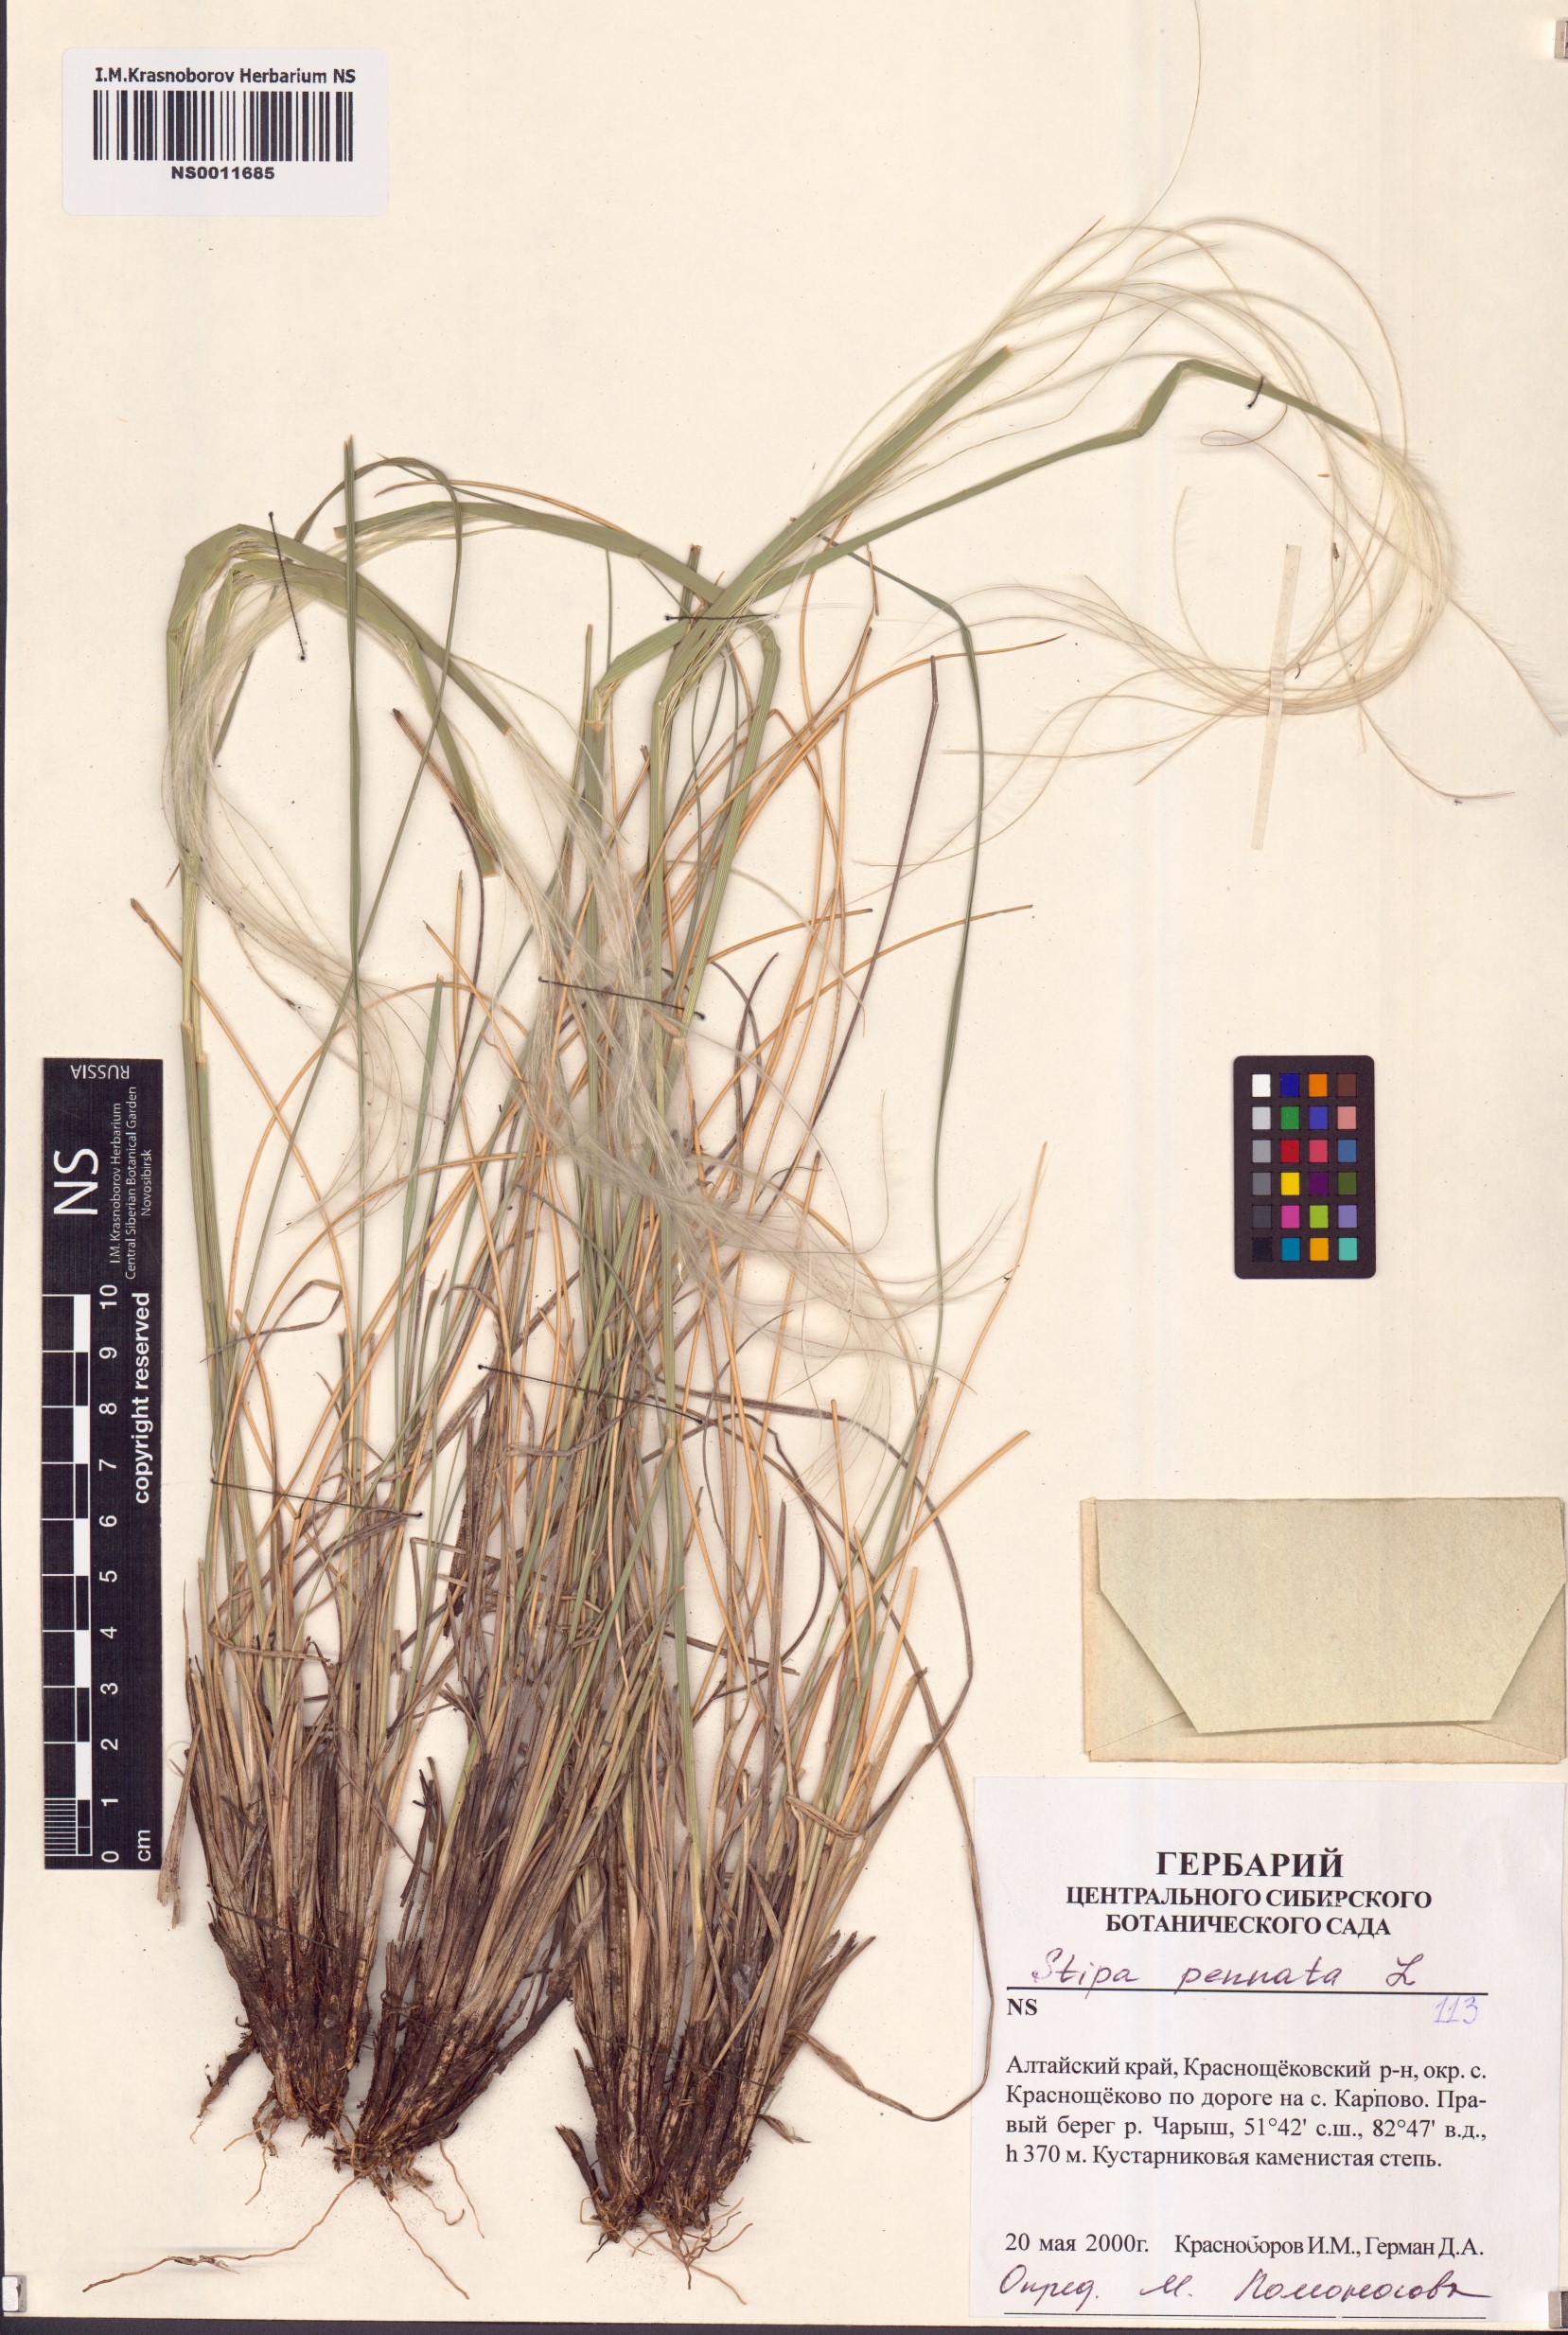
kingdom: Plantae
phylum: Tracheophyta
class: Liliopsida
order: Poales
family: Poaceae
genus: Stipa
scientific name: Stipa pennata
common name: European feather grass
